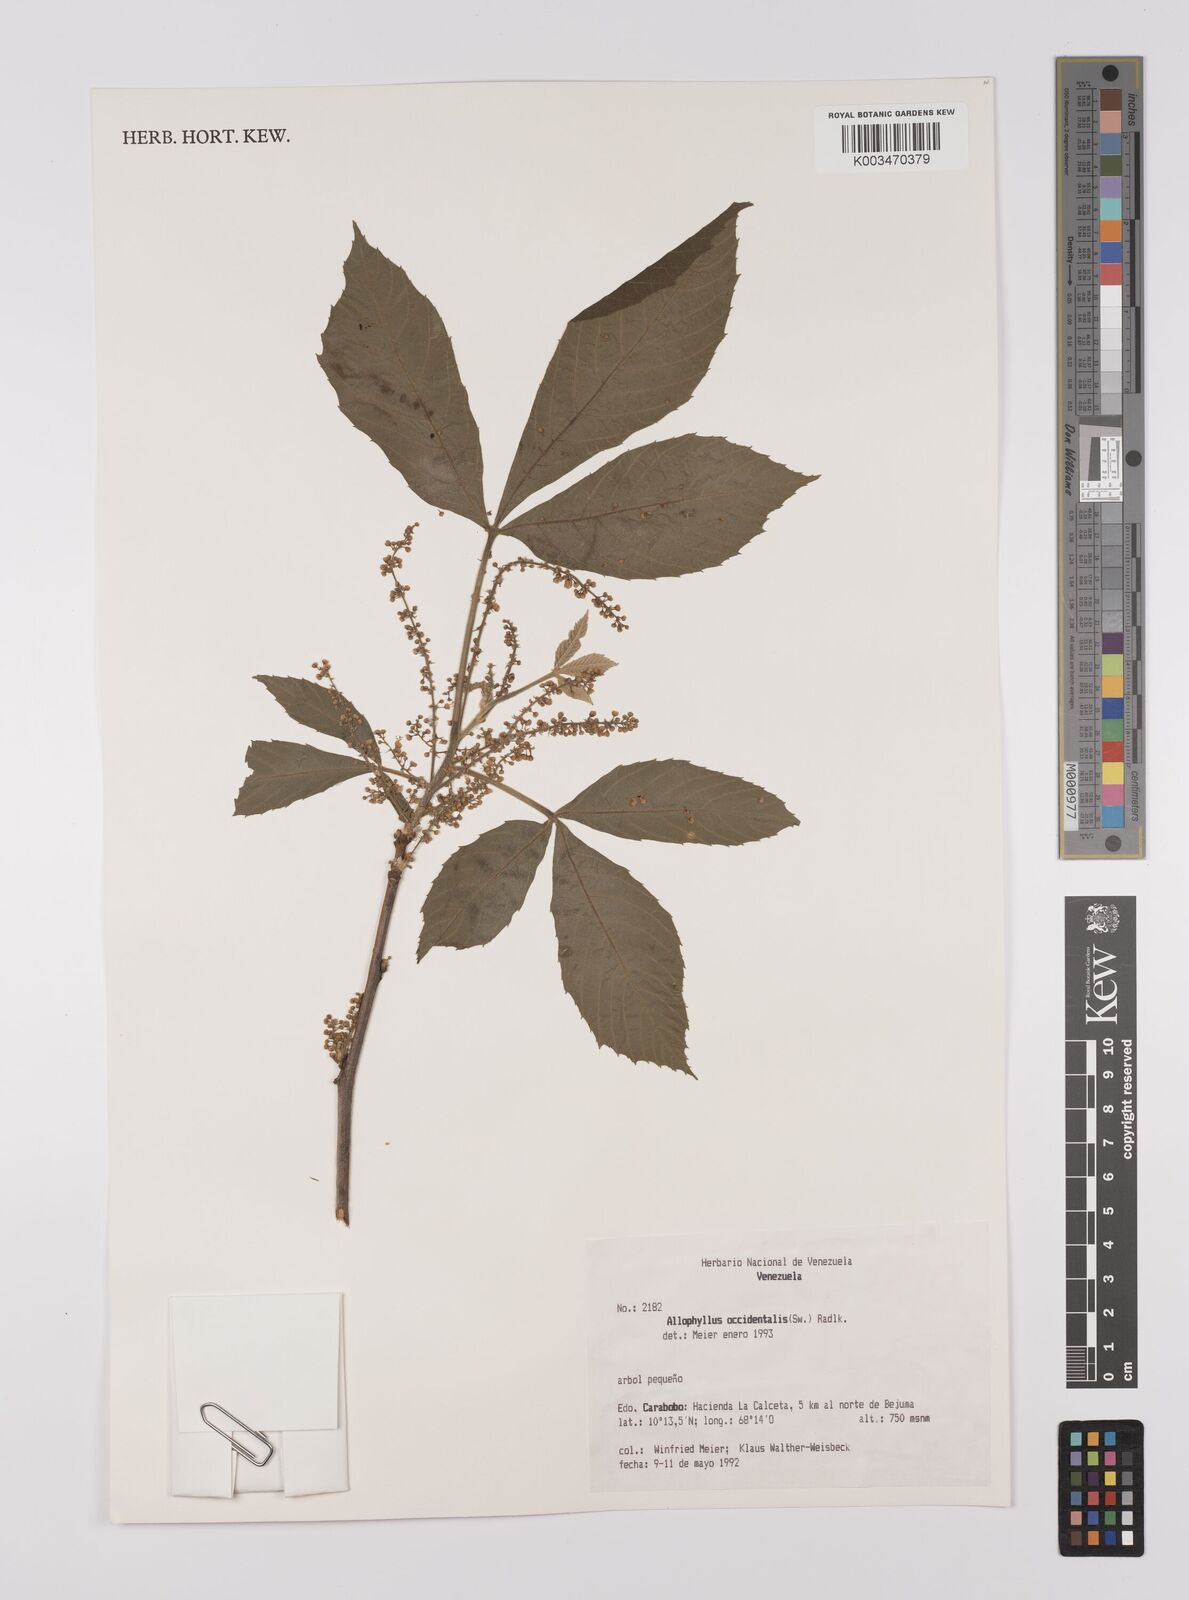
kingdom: Plantae
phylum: Tracheophyta
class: Magnoliopsida
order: Sapindales
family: Sapindaceae
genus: Allophylus
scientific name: Allophylus
